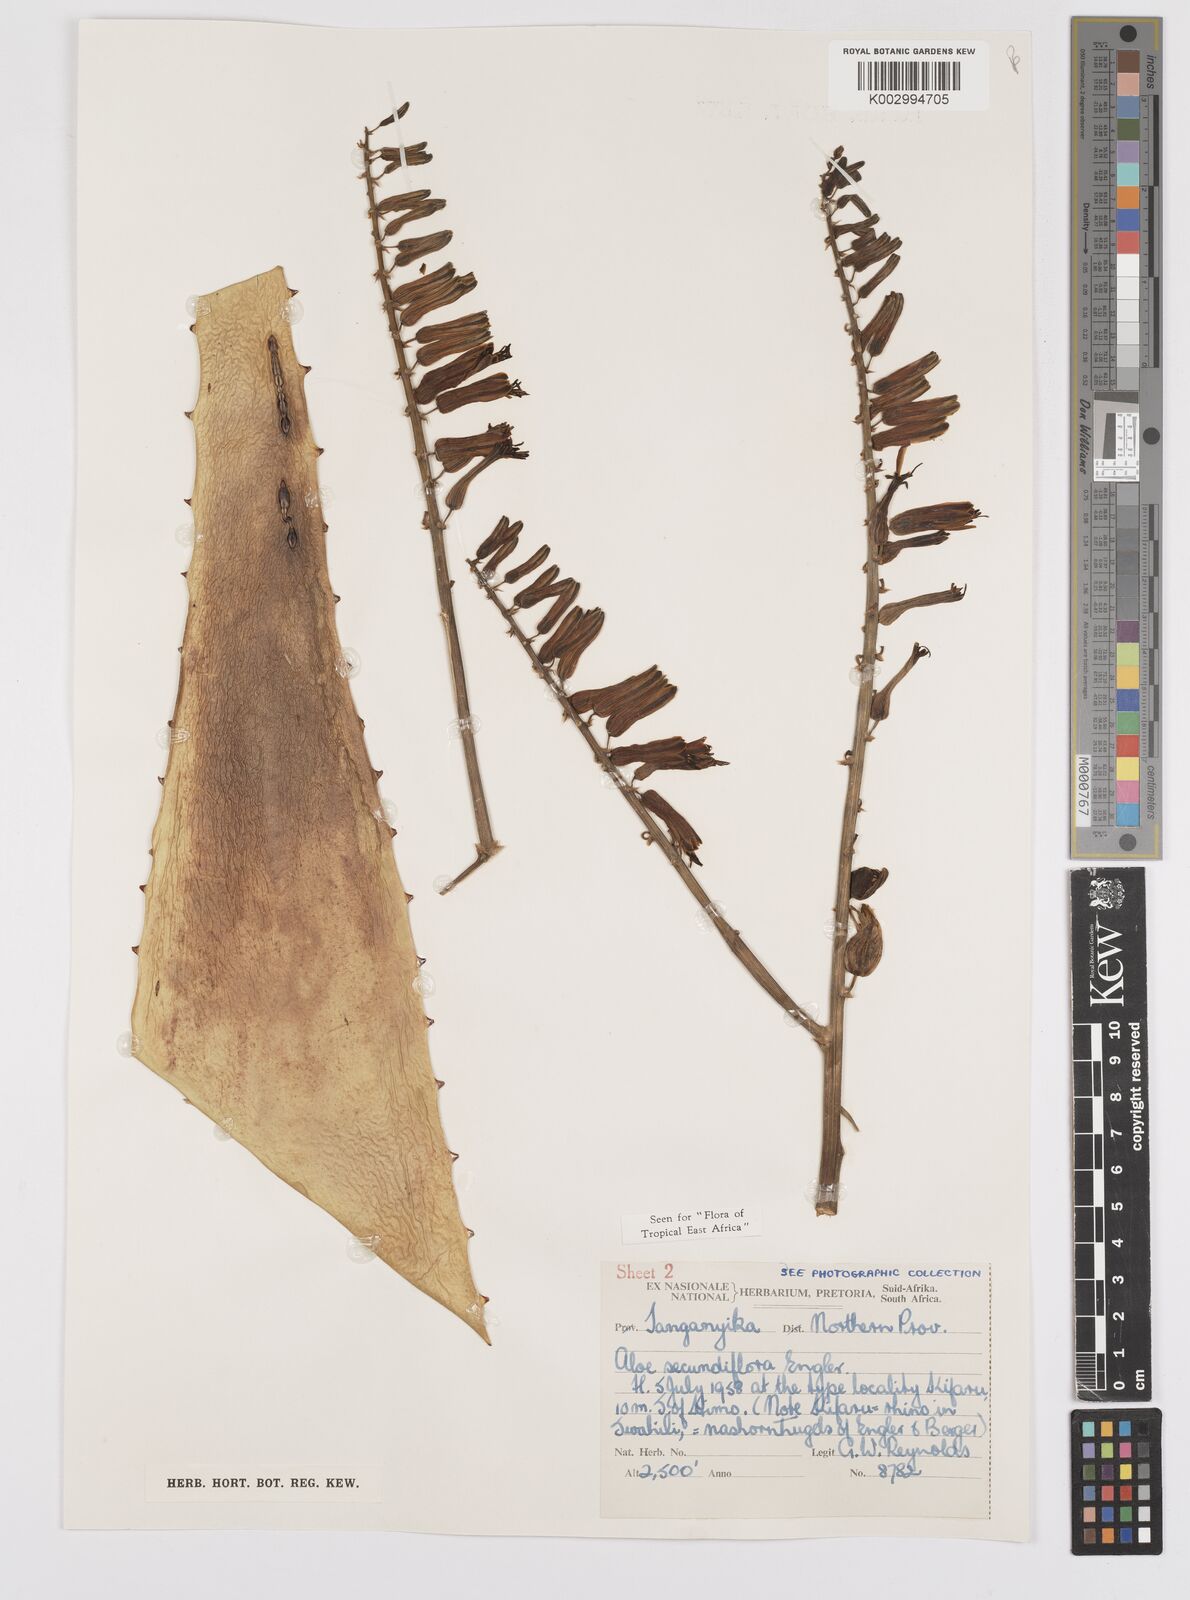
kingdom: Plantae
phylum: Tracheophyta
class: Liliopsida
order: Asparagales
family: Asphodelaceae
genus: Aloe
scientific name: Aloe secundiflora
